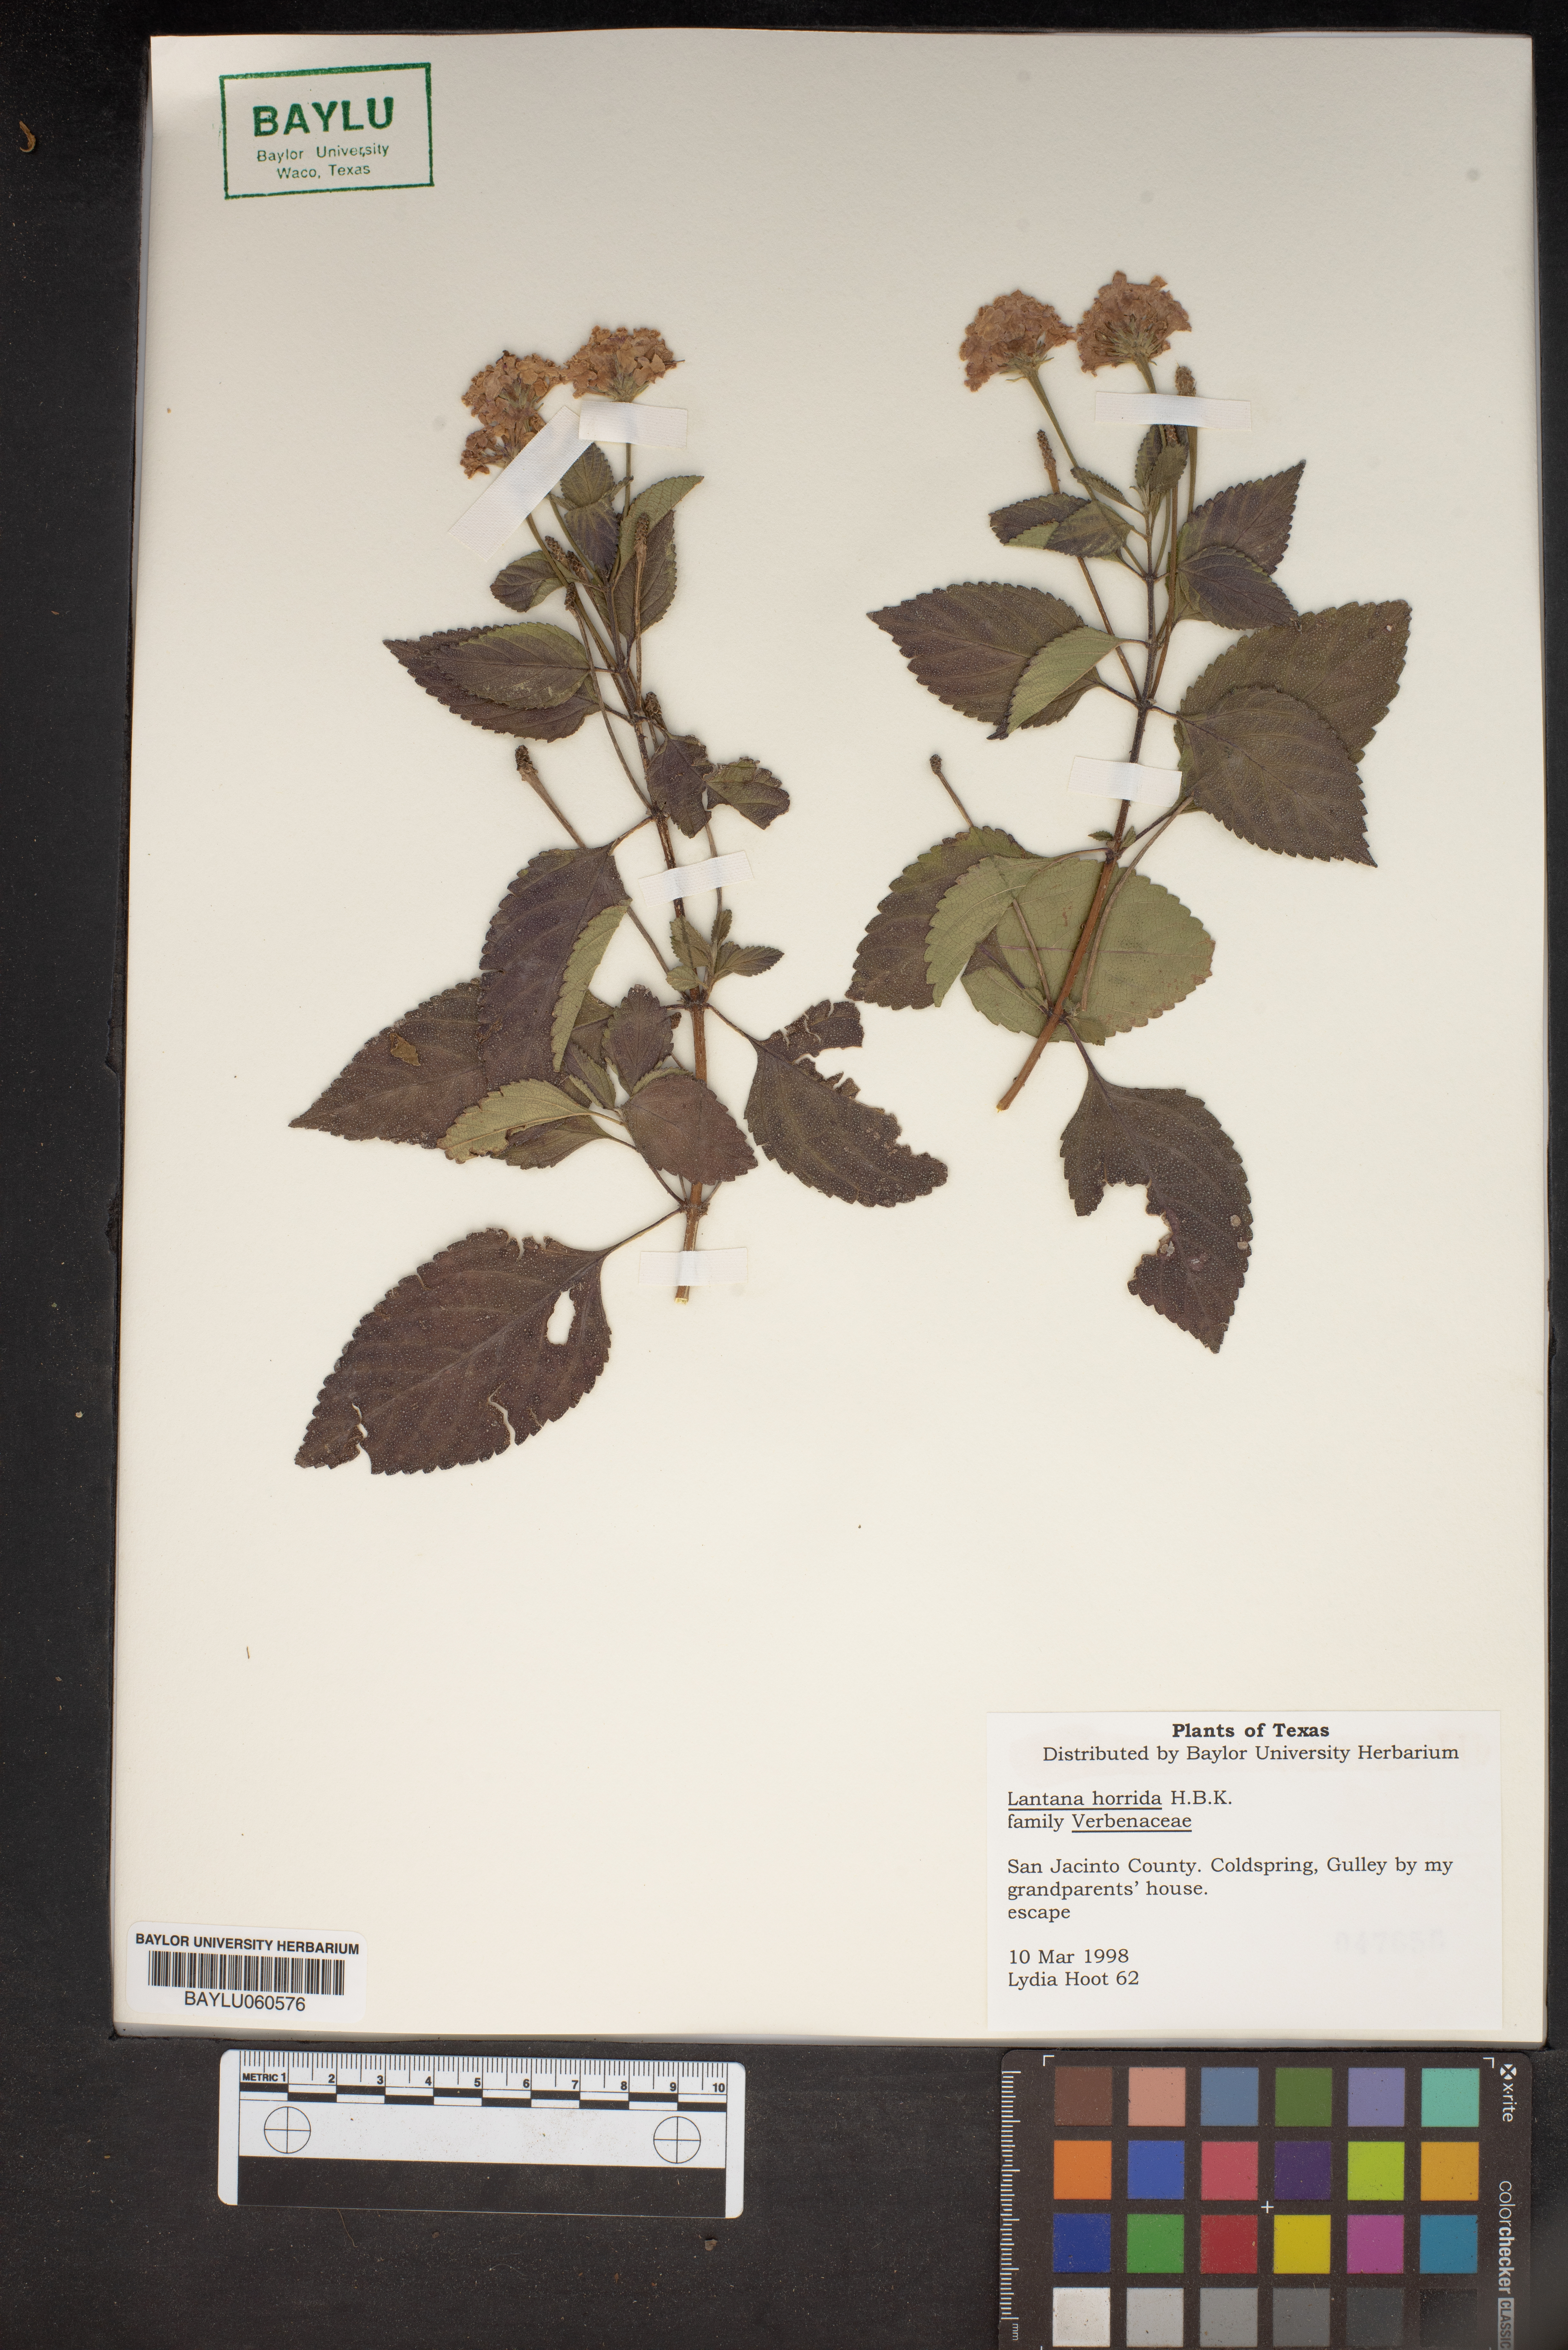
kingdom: Plantae
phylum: Tracheophyta
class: Magnoliopsida
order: Lamiales
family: Verbenaceae
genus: Lantana
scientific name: Lantana horrida
